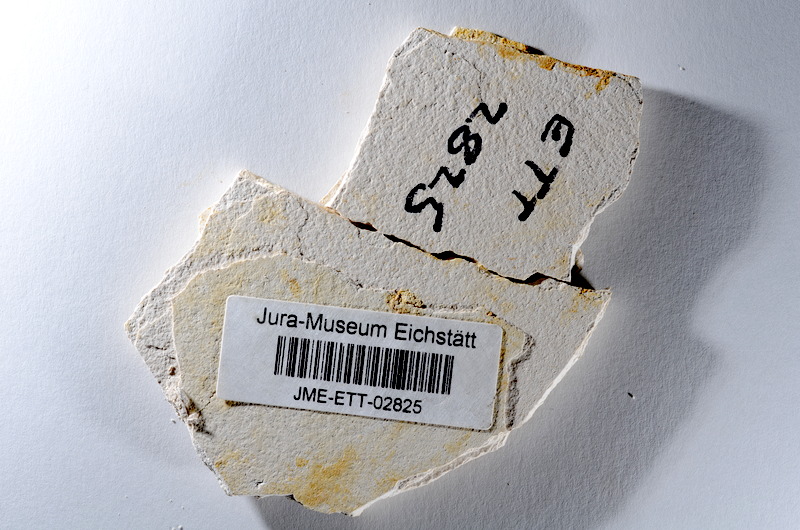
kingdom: Animalia
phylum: Chordata
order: Salmoniformes
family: Orthogonikleithridae
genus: Orthogonikleithrus
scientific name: Orthogonikleithrus hoelli
